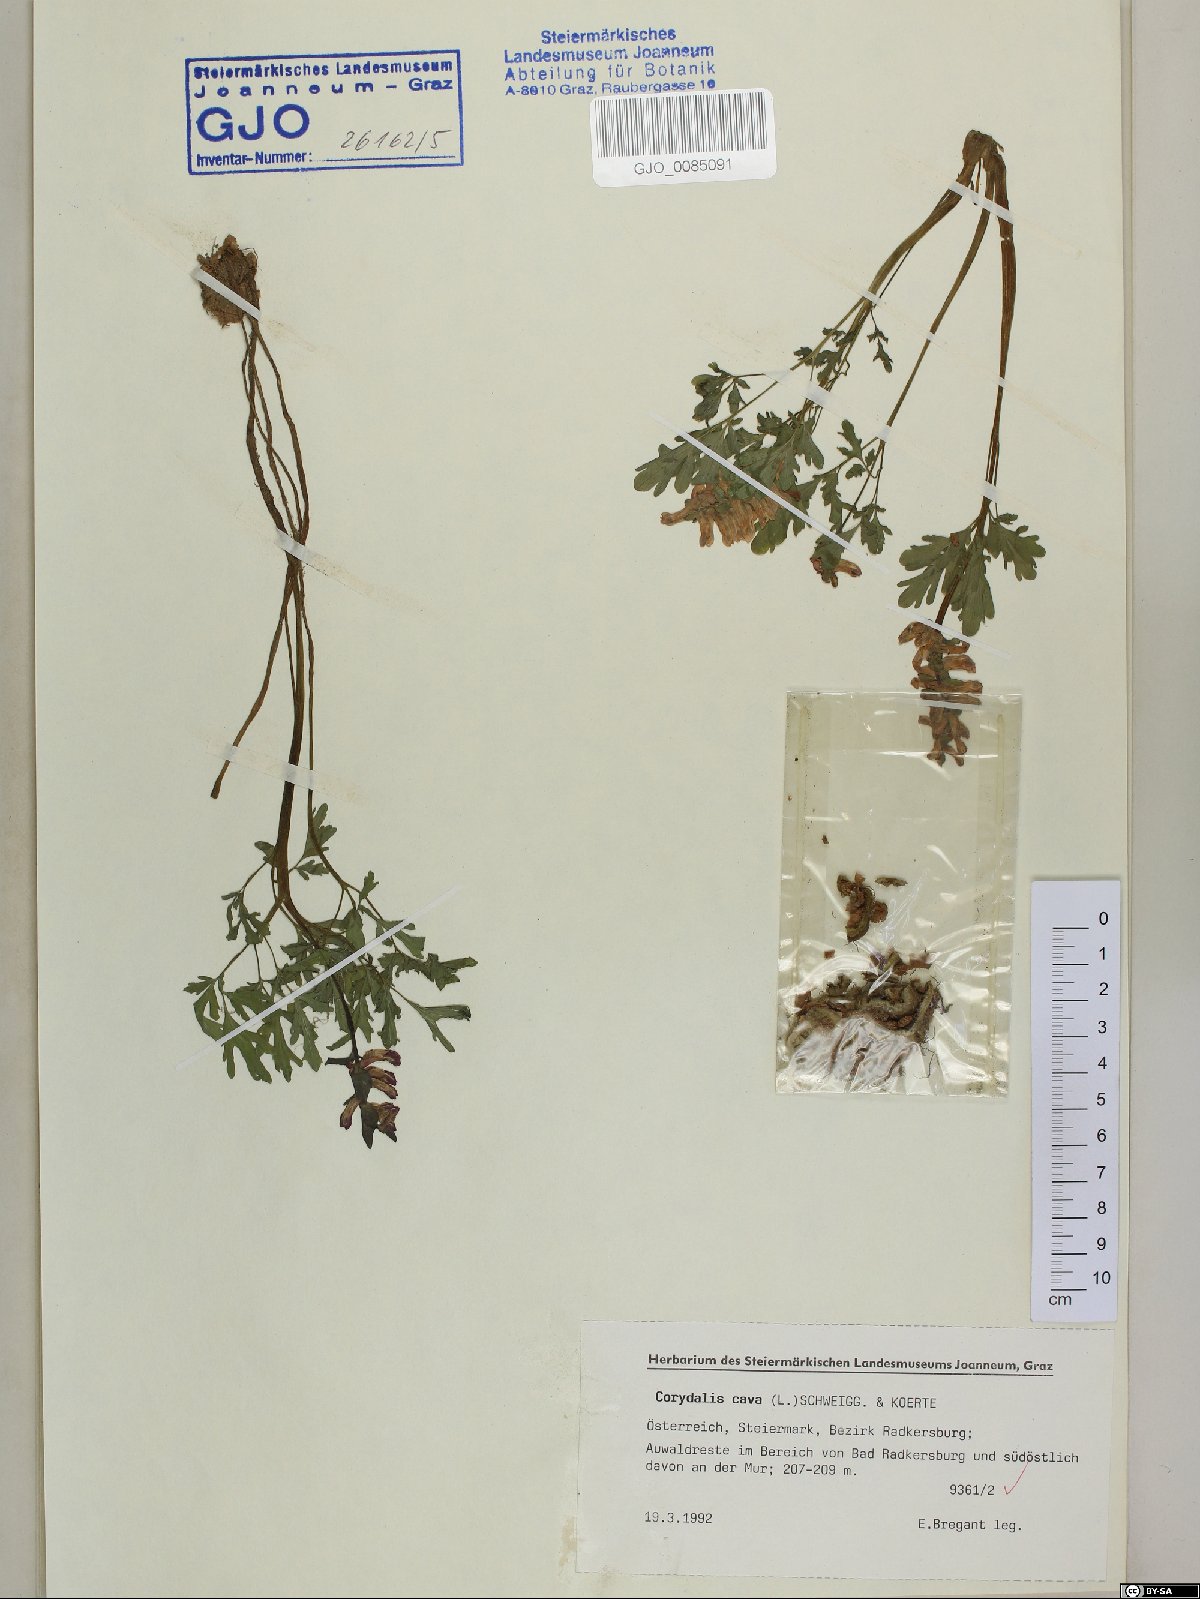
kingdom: Plantae
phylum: Tracheophyta
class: Magnoliopsida
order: Ranunculales
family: Papaveraceae
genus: Corydalis
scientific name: Corydalis cava
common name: Hollowroot
